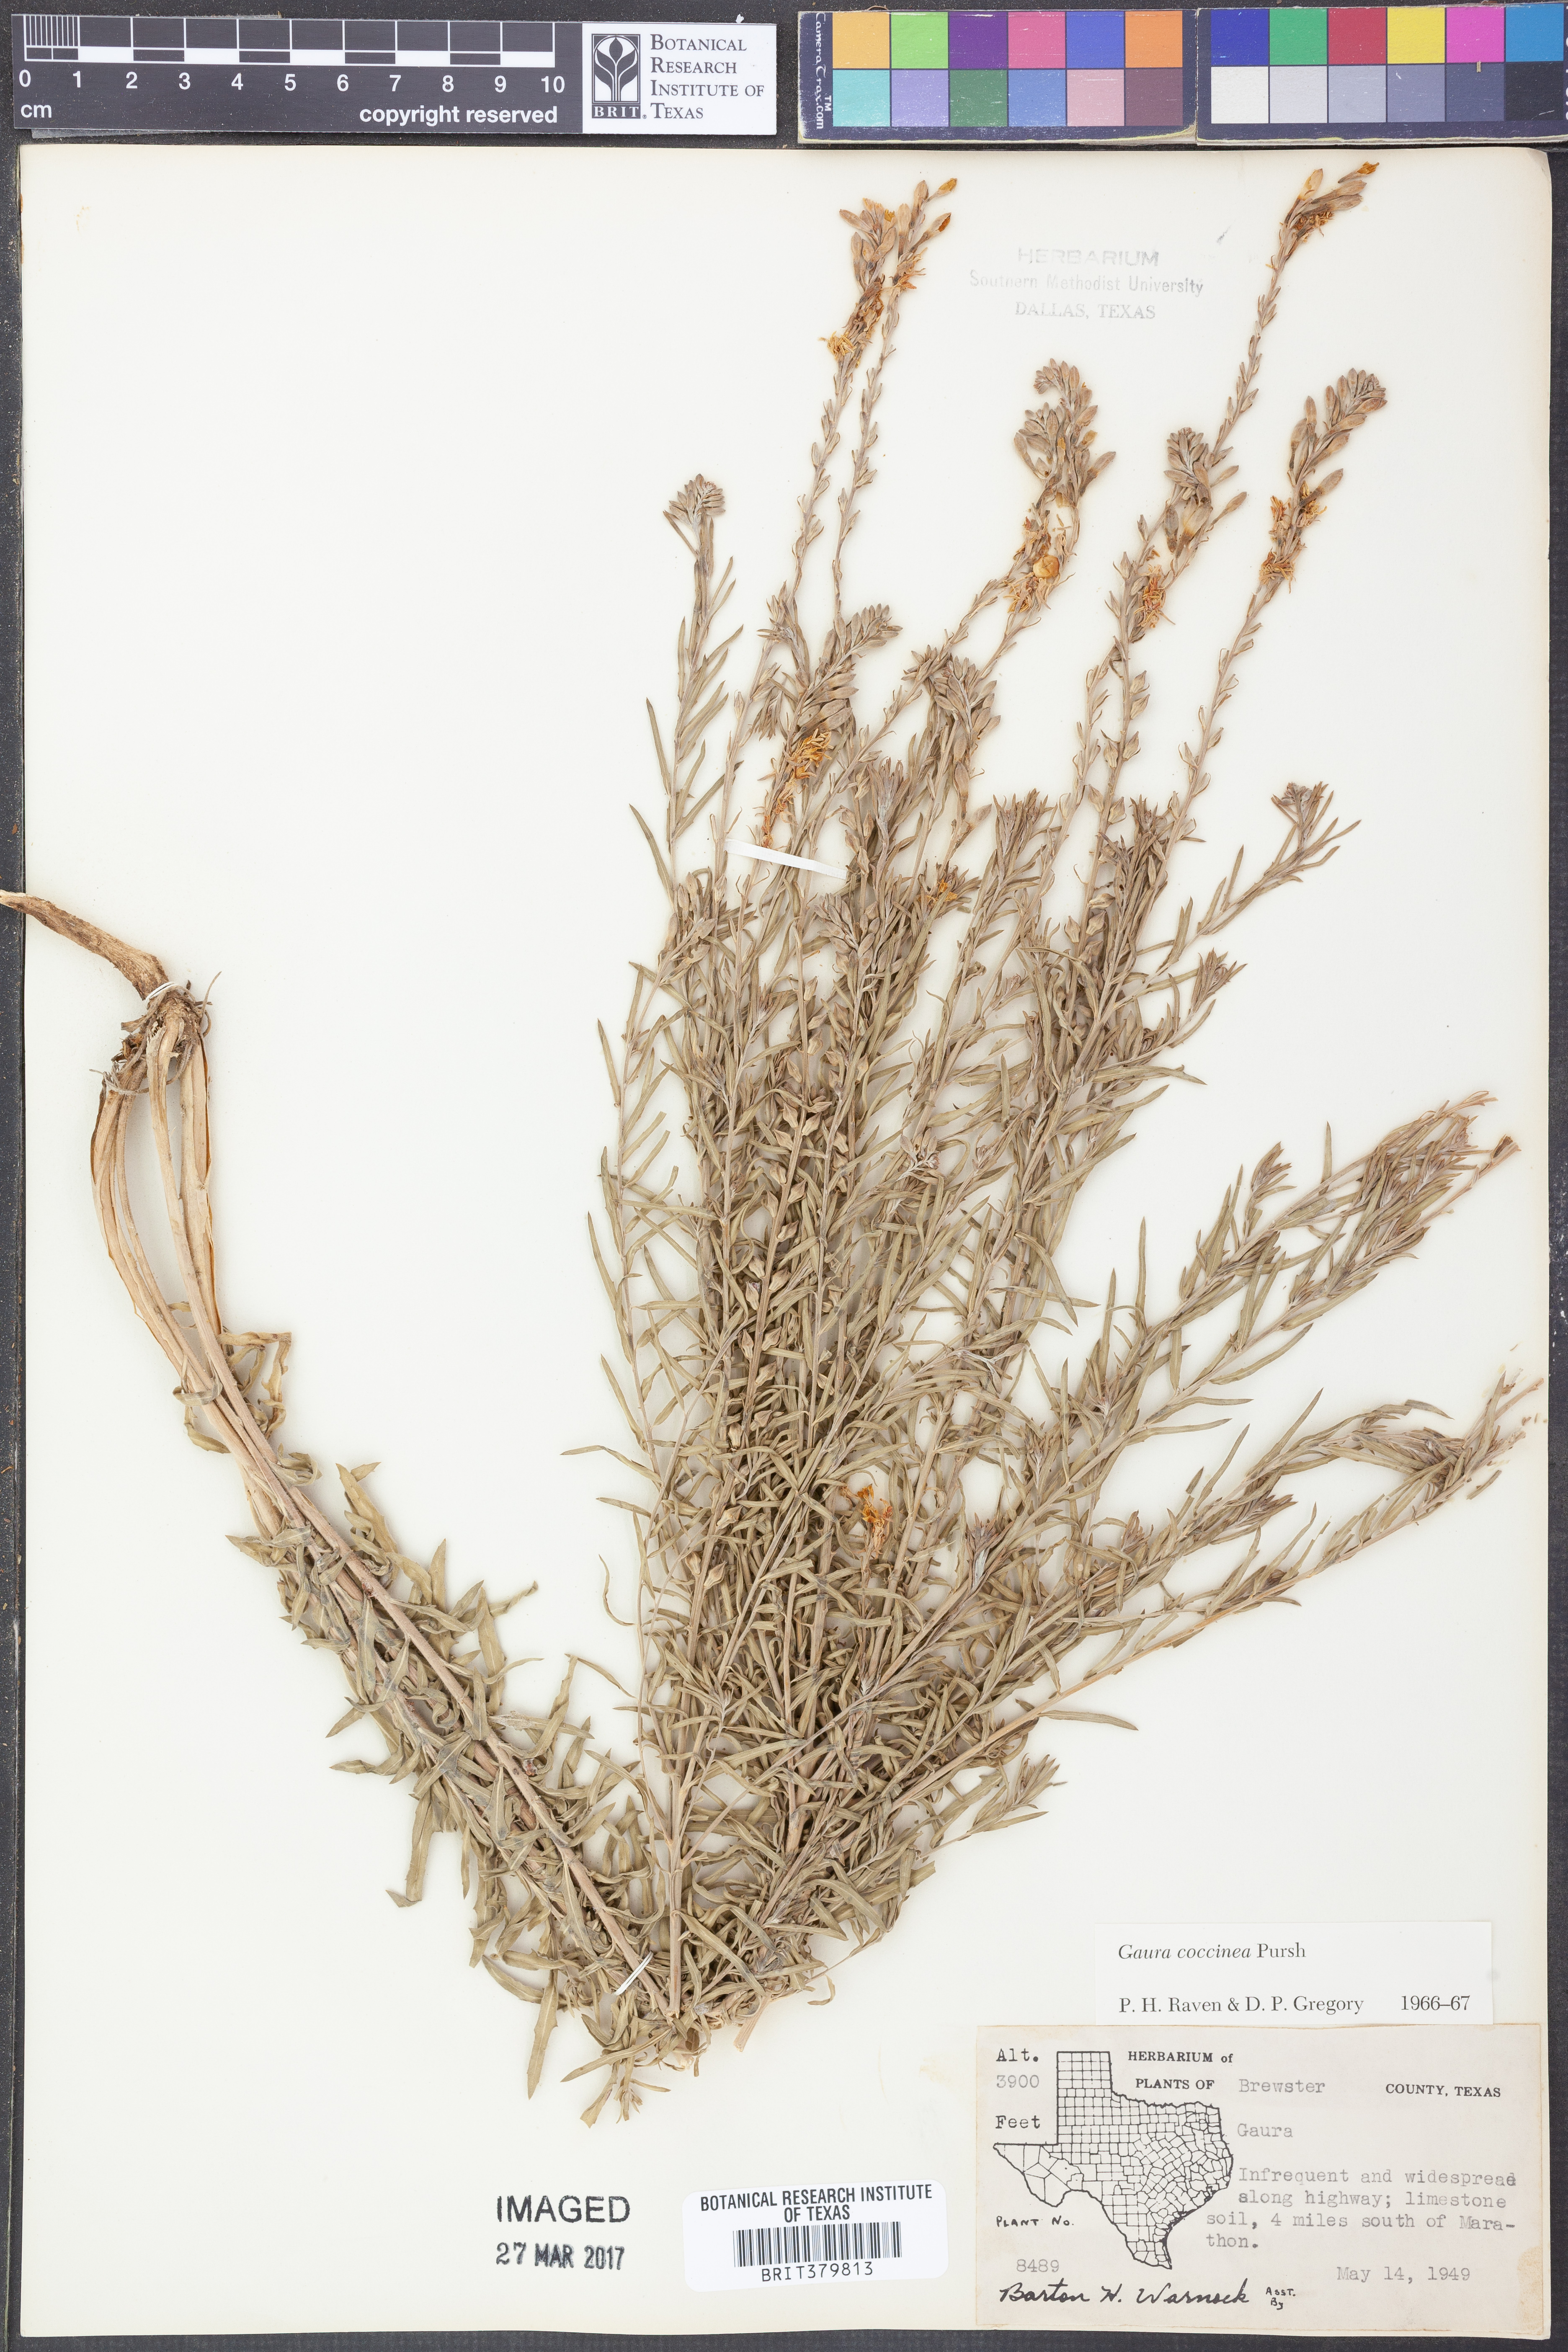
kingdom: Plantae
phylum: Tracheophyta
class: Magnoliopsida
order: Myrtales
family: Onagraceae
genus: Oenothera
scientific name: Oenothera suffrutescens
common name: Scarlet beeblossom
